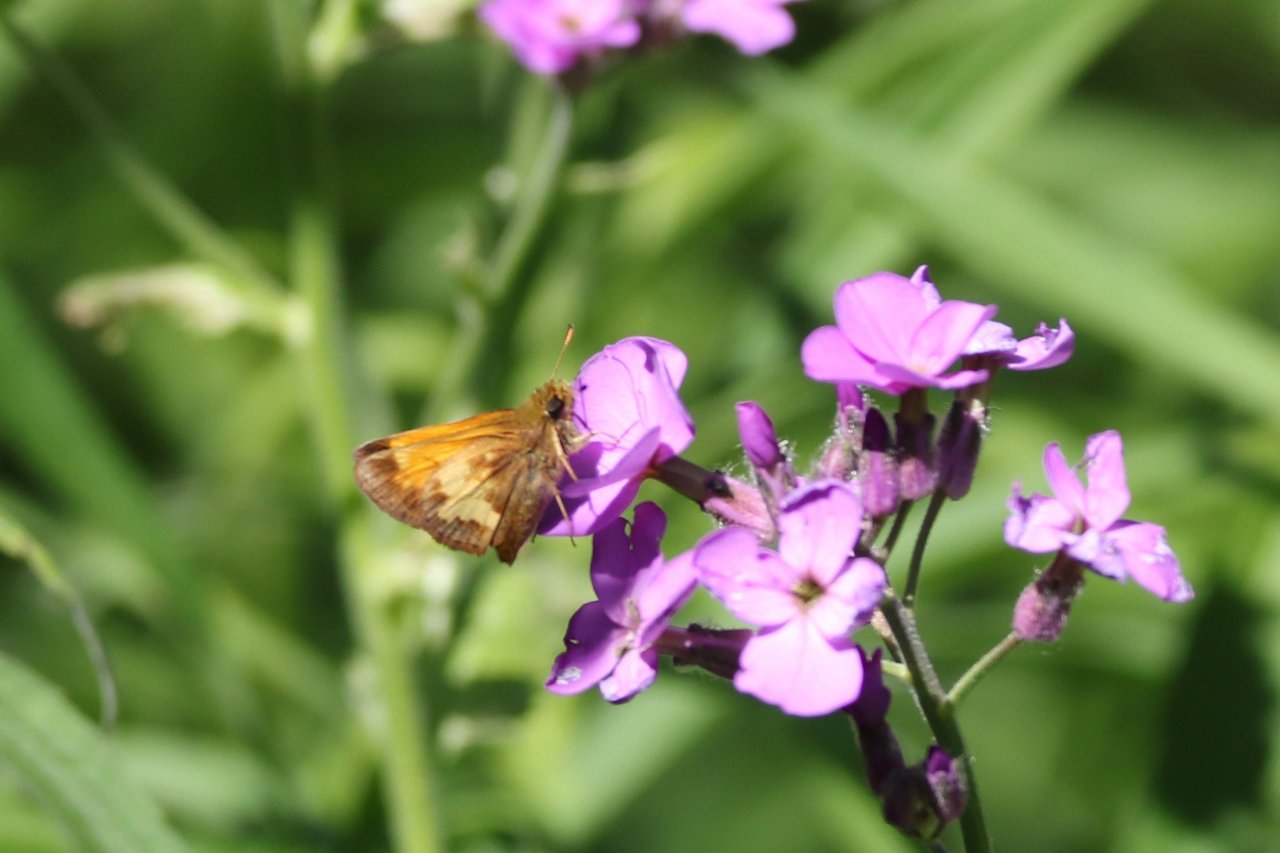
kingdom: Animalia
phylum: Arthropoda
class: Insecta
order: Lepidoptera
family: Hesperiidae
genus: Lon
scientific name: Lon hobomok
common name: Hobomok Skipper
